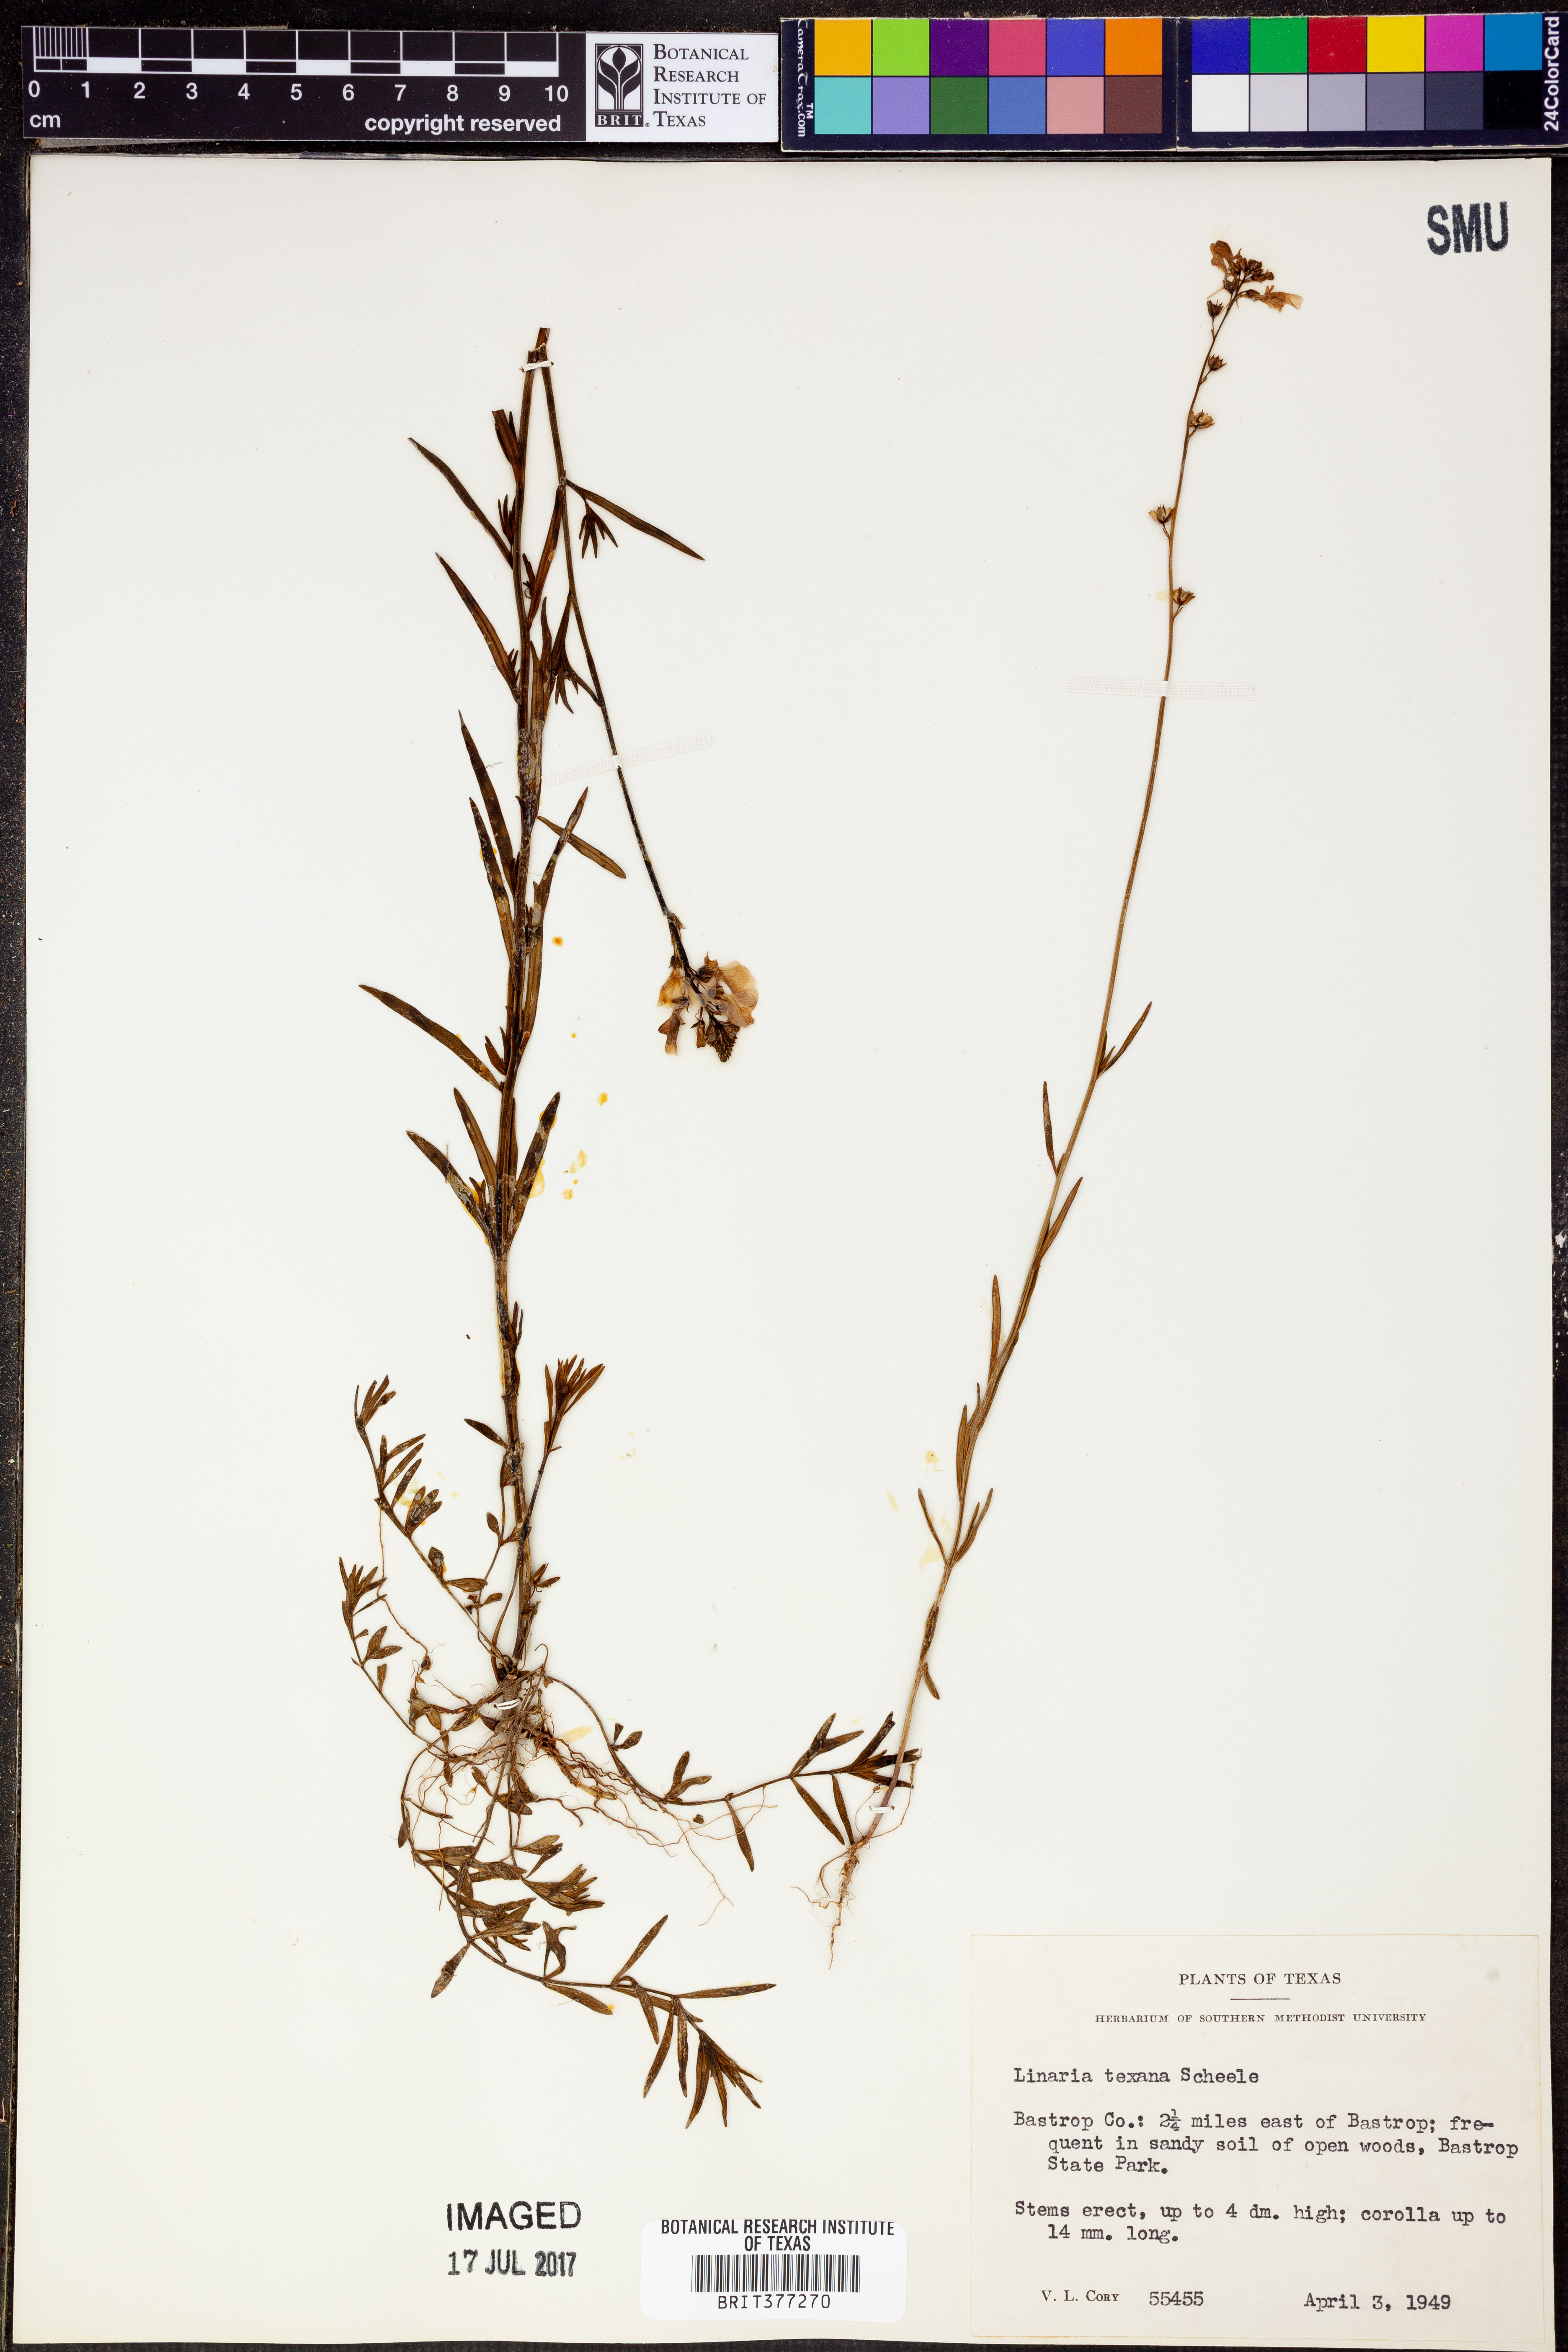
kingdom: Plantae
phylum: Tracheophyta
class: Magnoliopsida
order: Lamiales
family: Plantaginaceae
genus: Nuttallanthus
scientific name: Nuttallanthus texanus
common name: Texas toadflax
